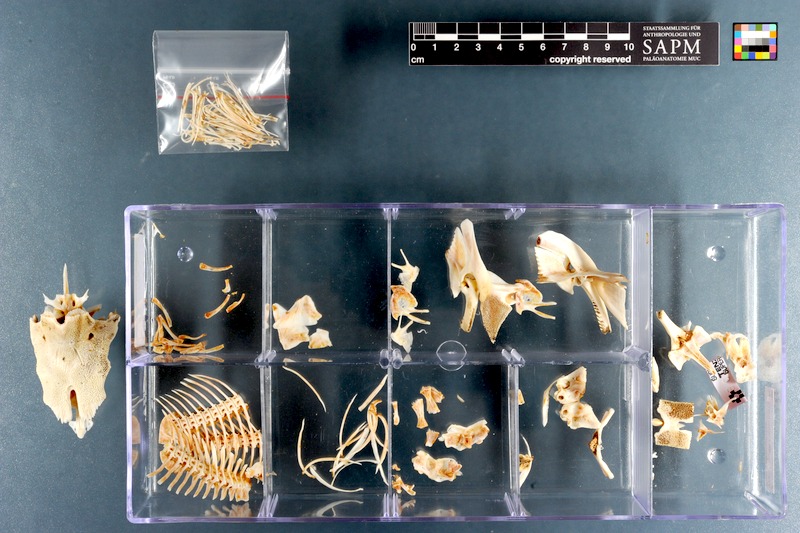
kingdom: Animalia
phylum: Chordata
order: Siluriformes
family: Mochokidae
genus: Synodontis
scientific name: Synodontis caudovittatus
